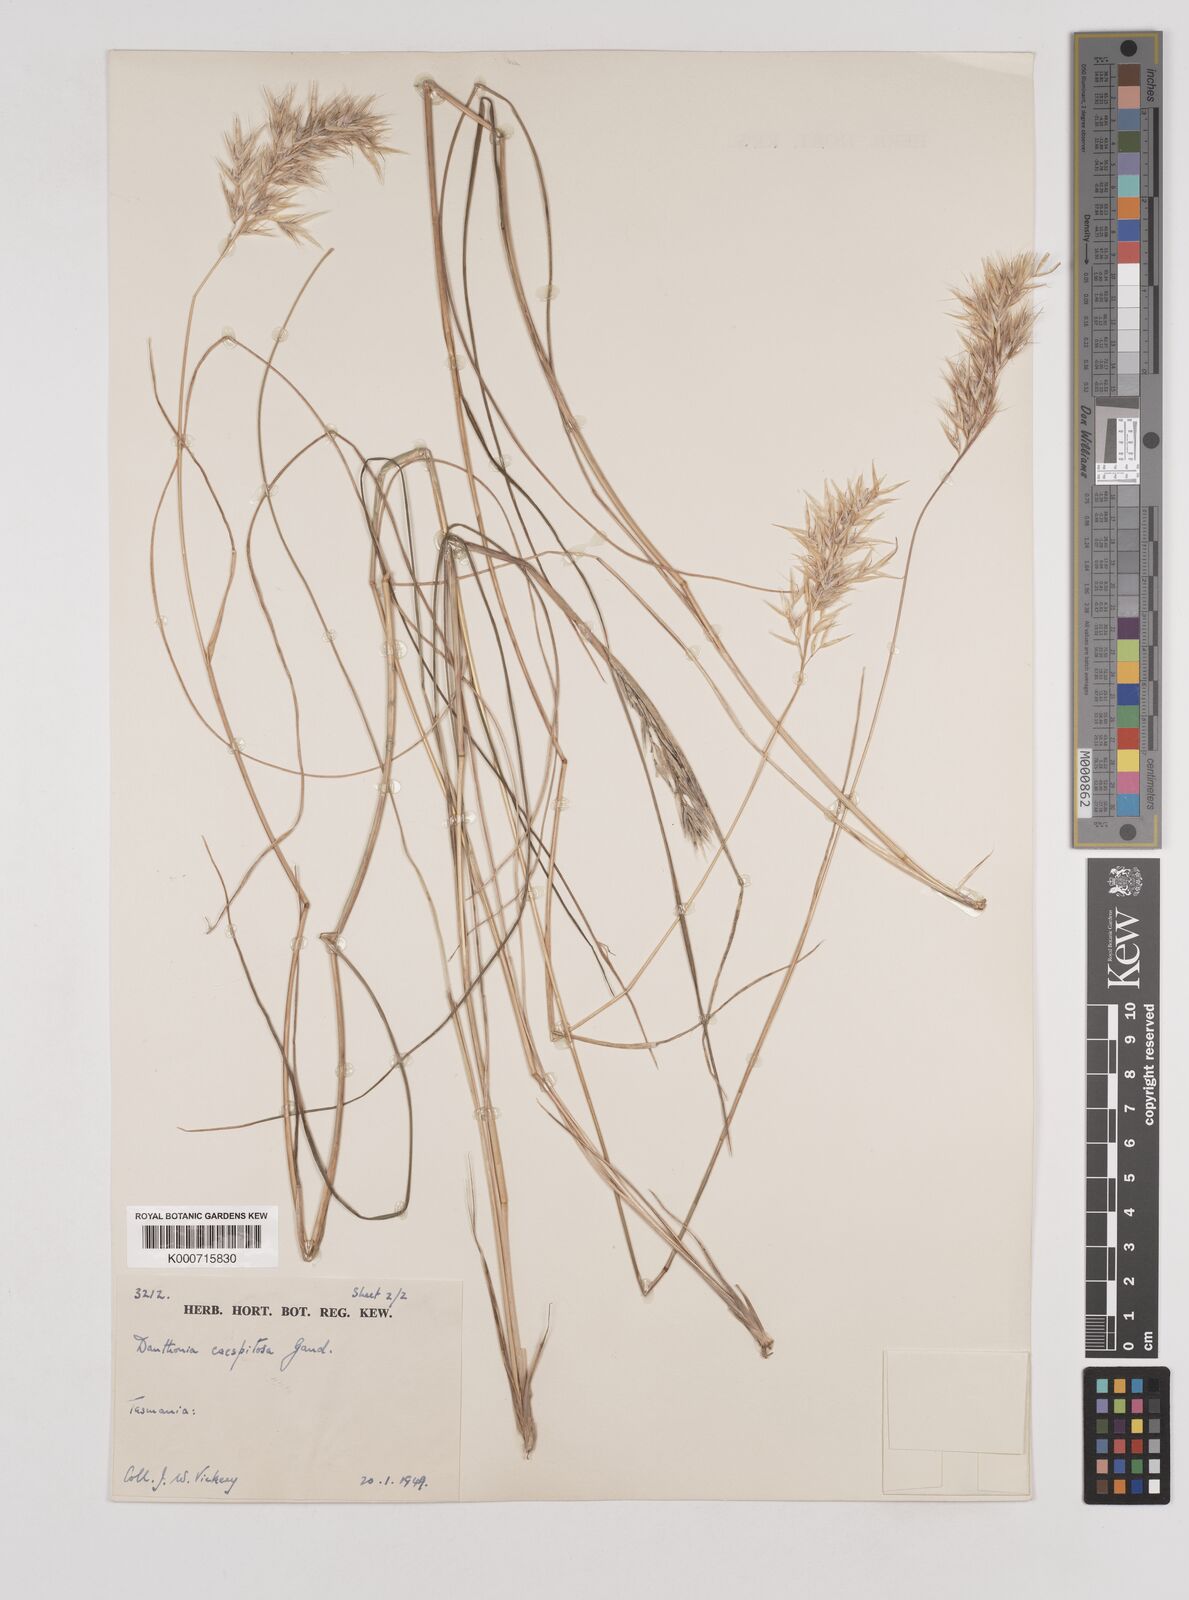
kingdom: Plantae
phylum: Tracheophyta
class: Liliopsida
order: Poales
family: Poaceae
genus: Rytidosperma
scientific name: Rytidosperma caespitosum
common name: Tufted wallaby grass
